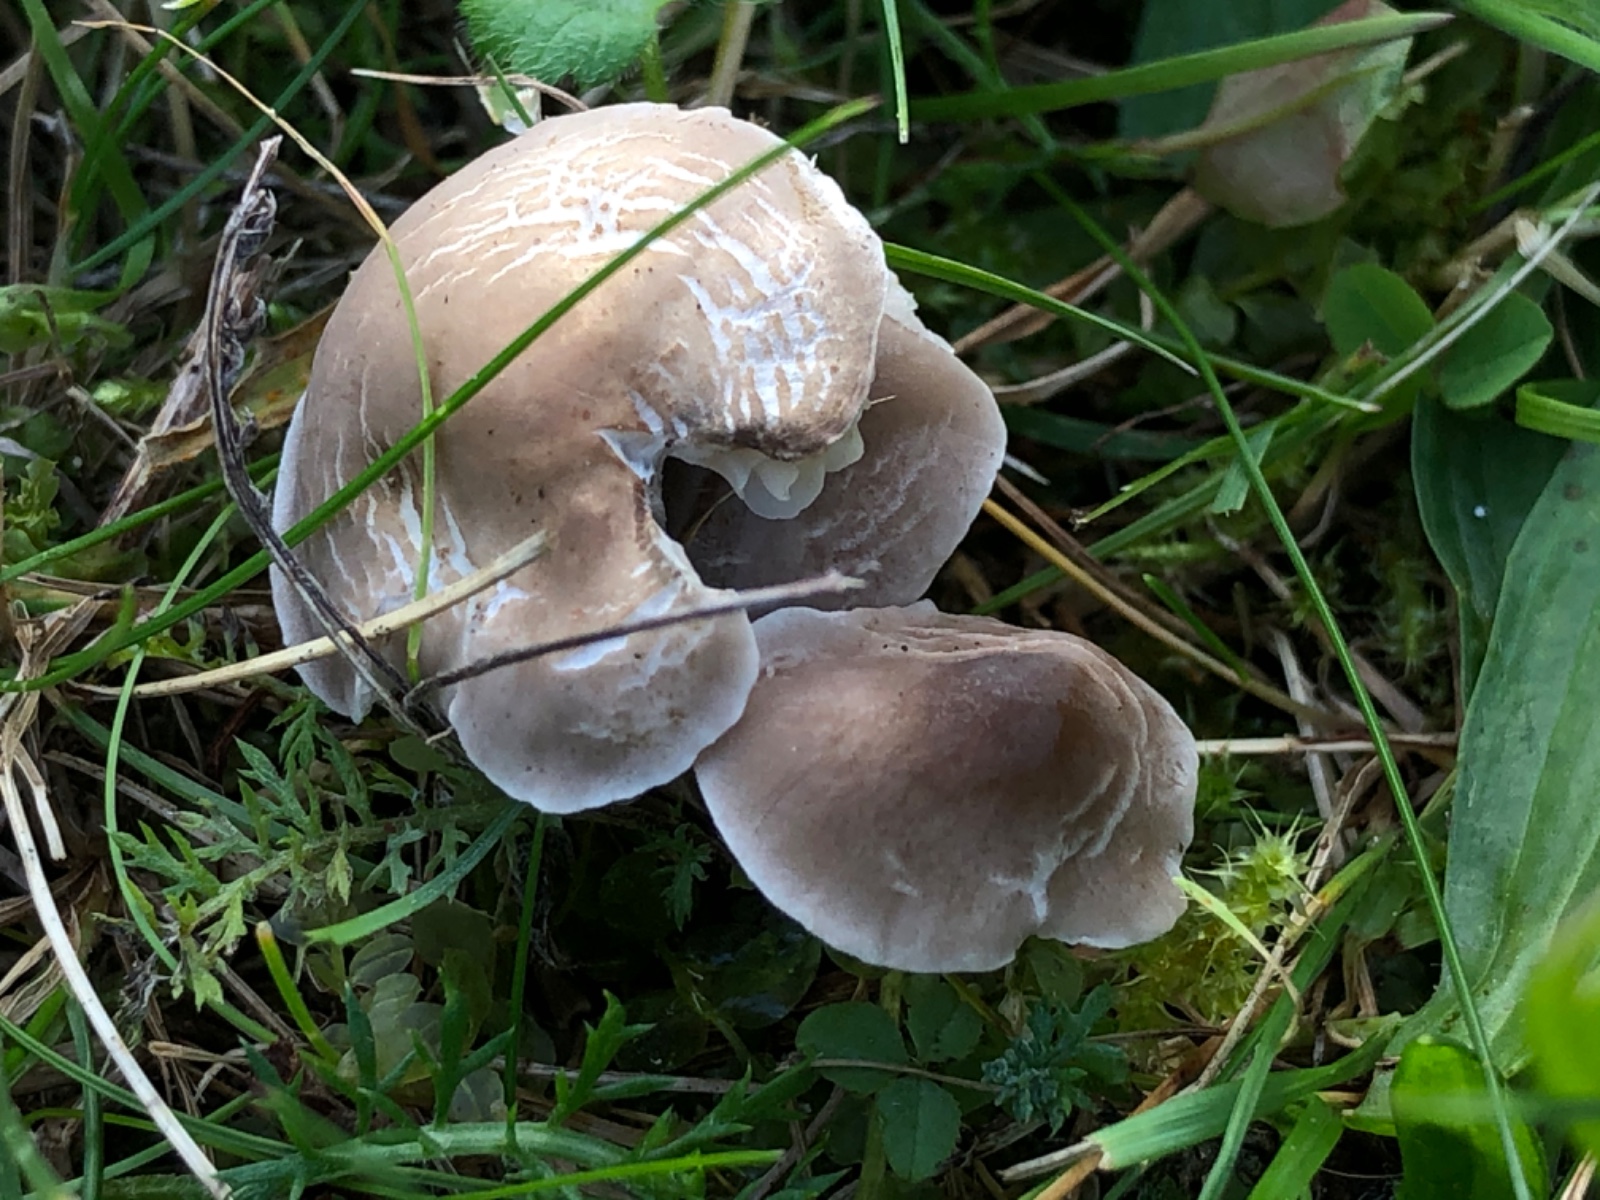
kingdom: Fungi
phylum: Basidiomycota
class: Agaricomycetes
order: Agaricales
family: Tricholomataceae
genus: Dermoloma
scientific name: Dermoloma cuneifolium
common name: eng-nonnehat
